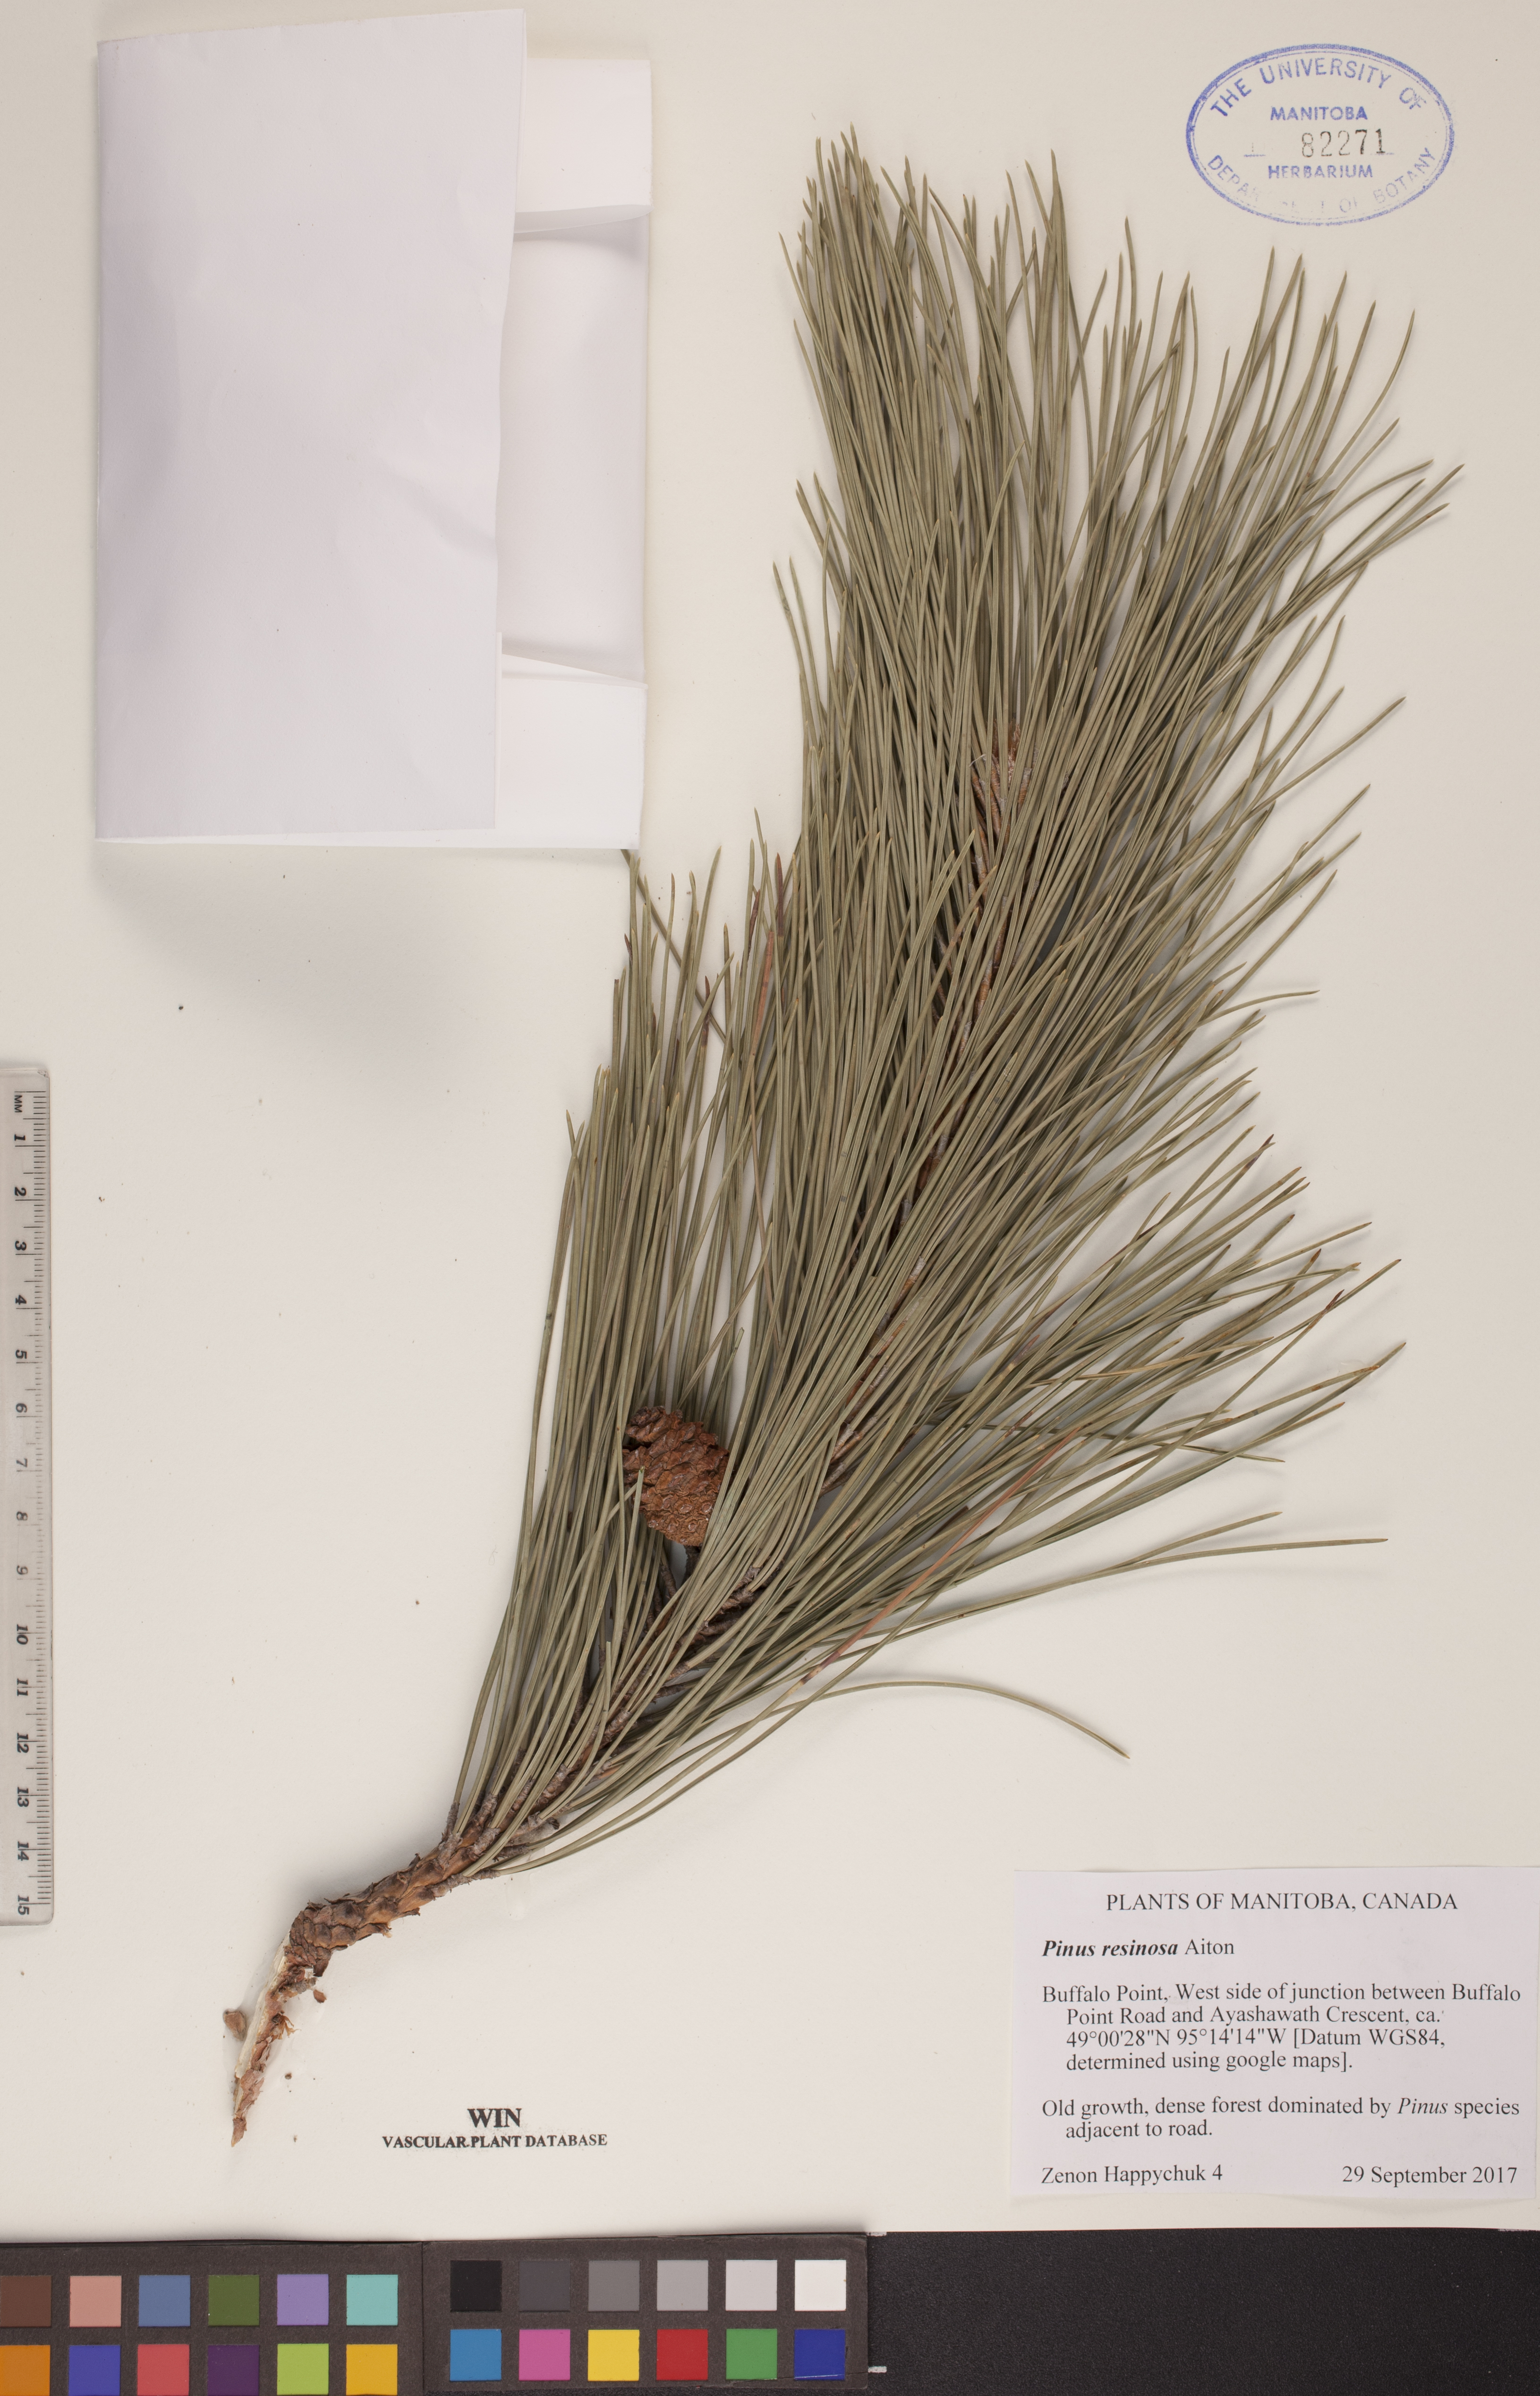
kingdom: Plantae
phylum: Tracheophyta
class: Pinopsida
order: Pinales
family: Pinaceae
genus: Pinus
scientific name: Pinus resinosa
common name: Norway pine
